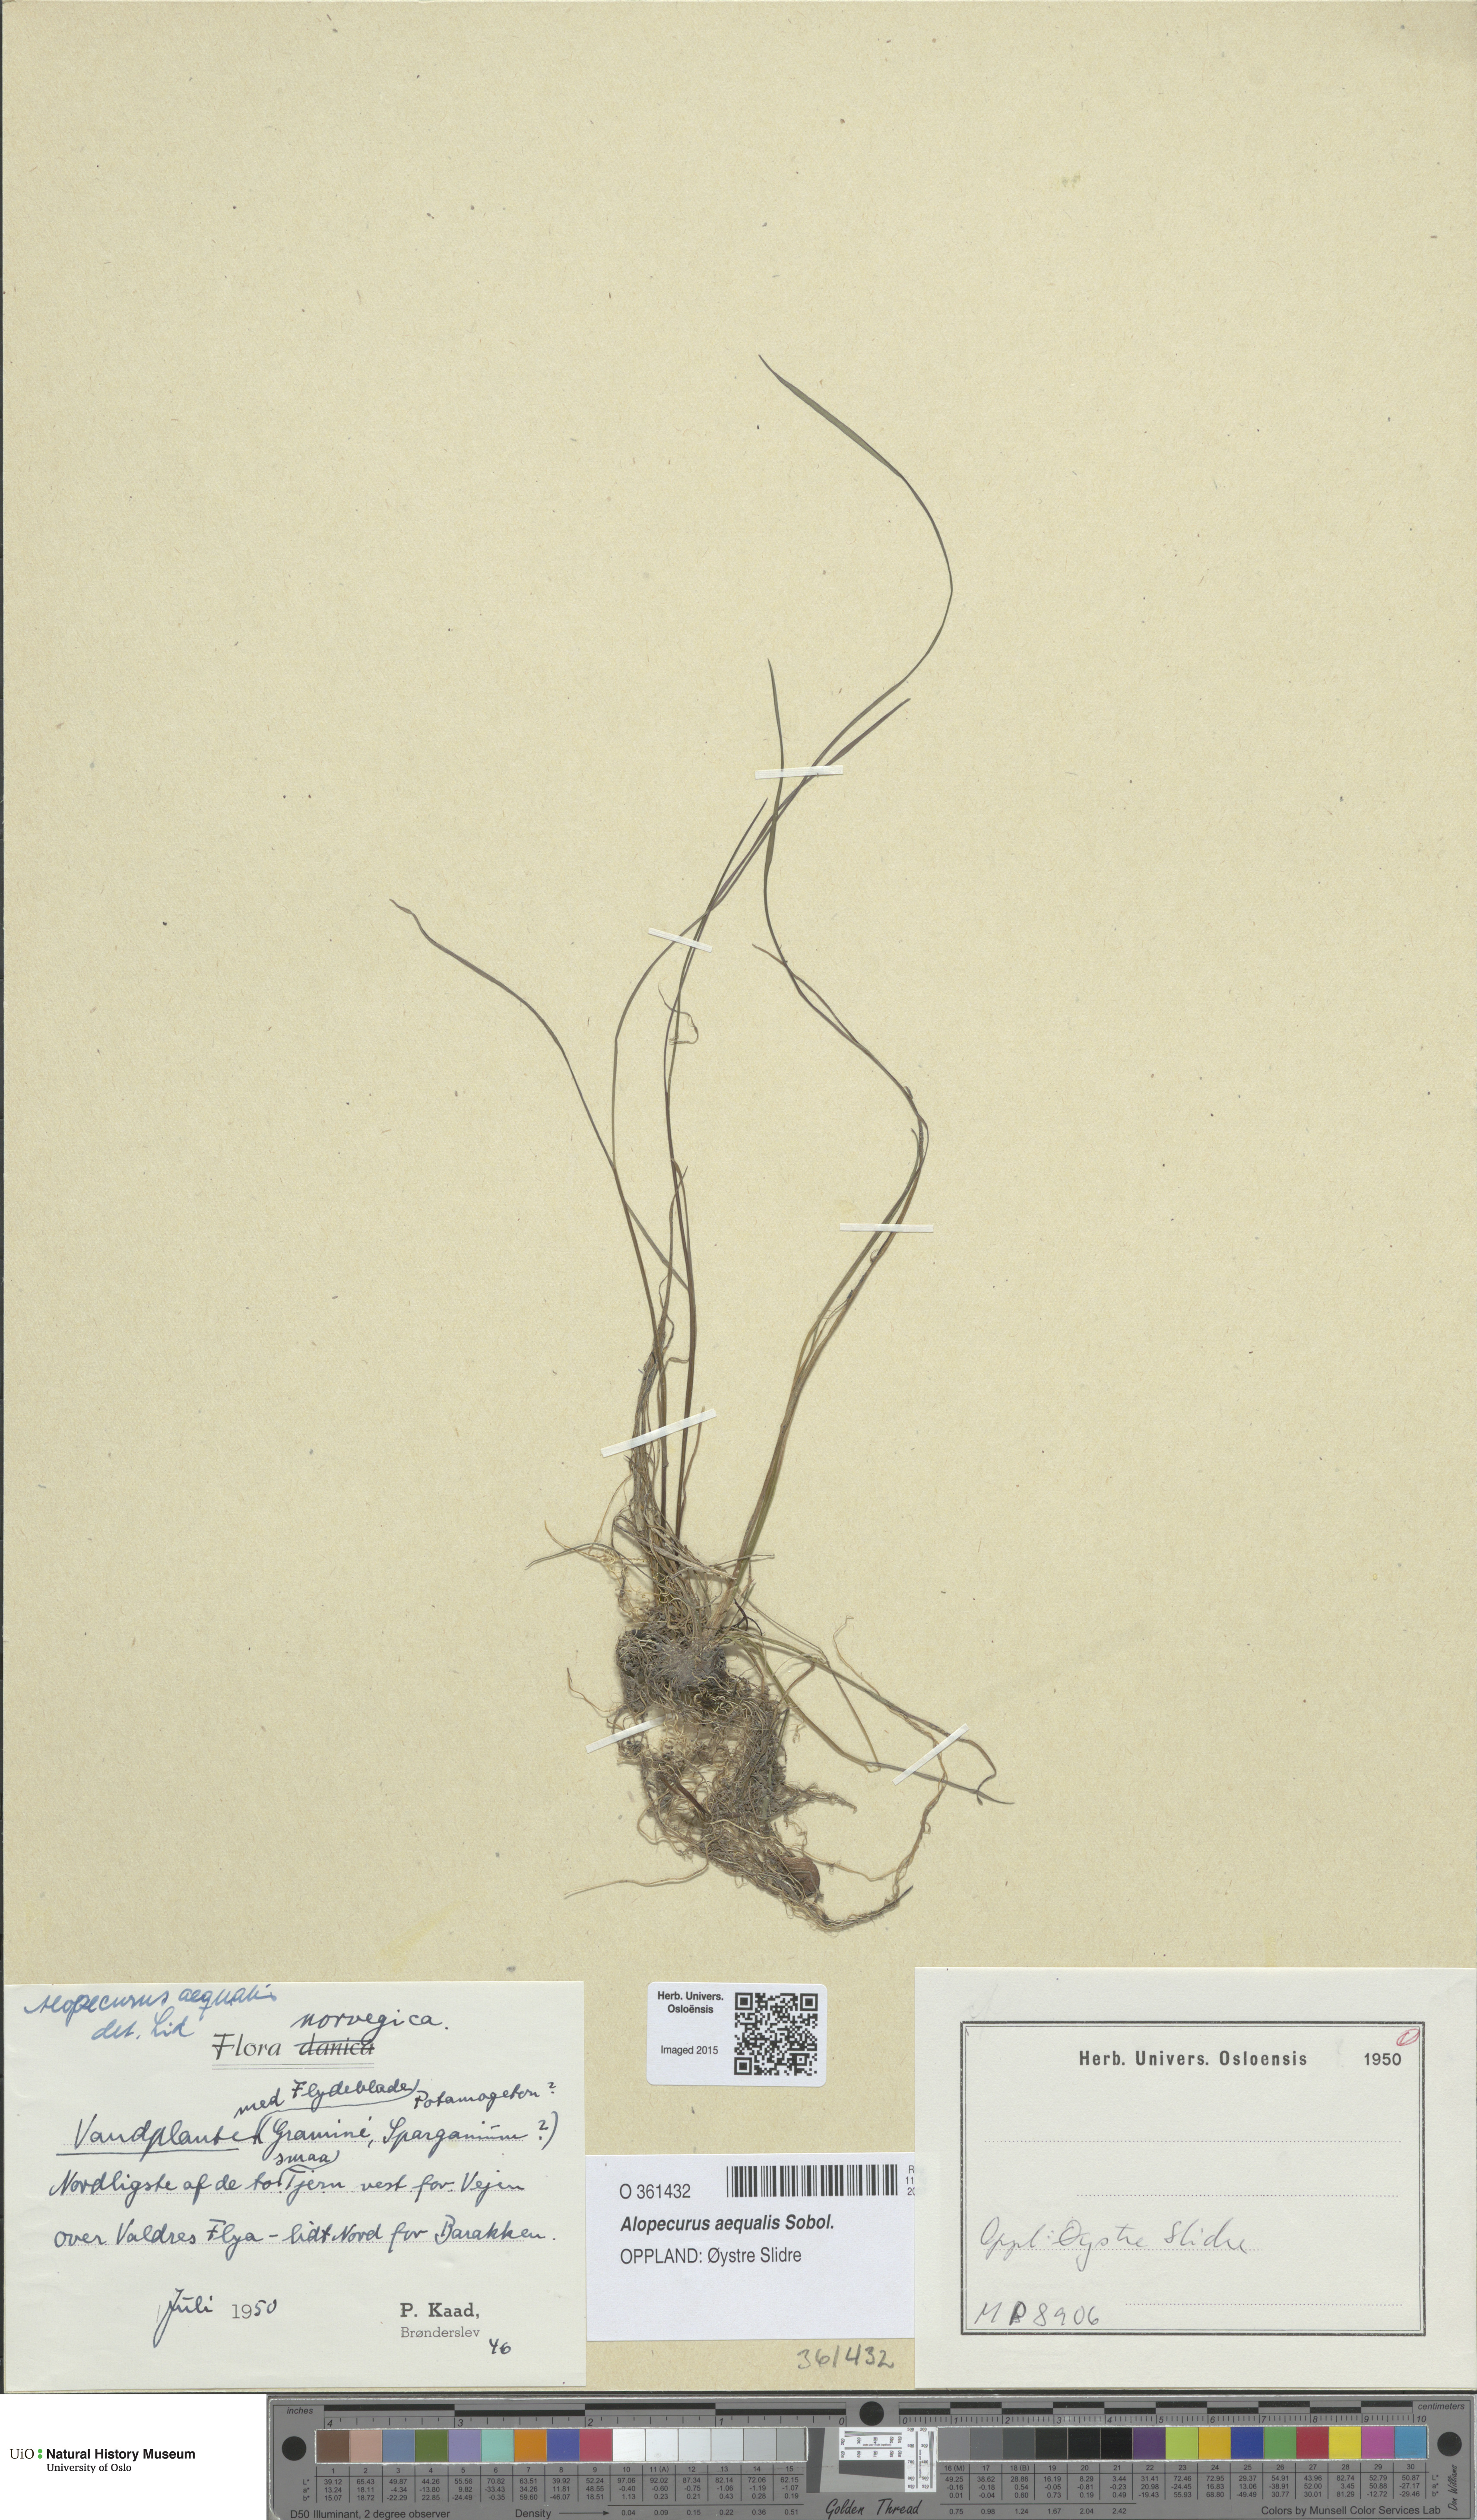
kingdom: Plantae
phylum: Tracheophyta
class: Liliopsida
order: Poales
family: Poaceae
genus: Alopecurus
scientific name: Alopecurus aequalis
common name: Orange foxtail
